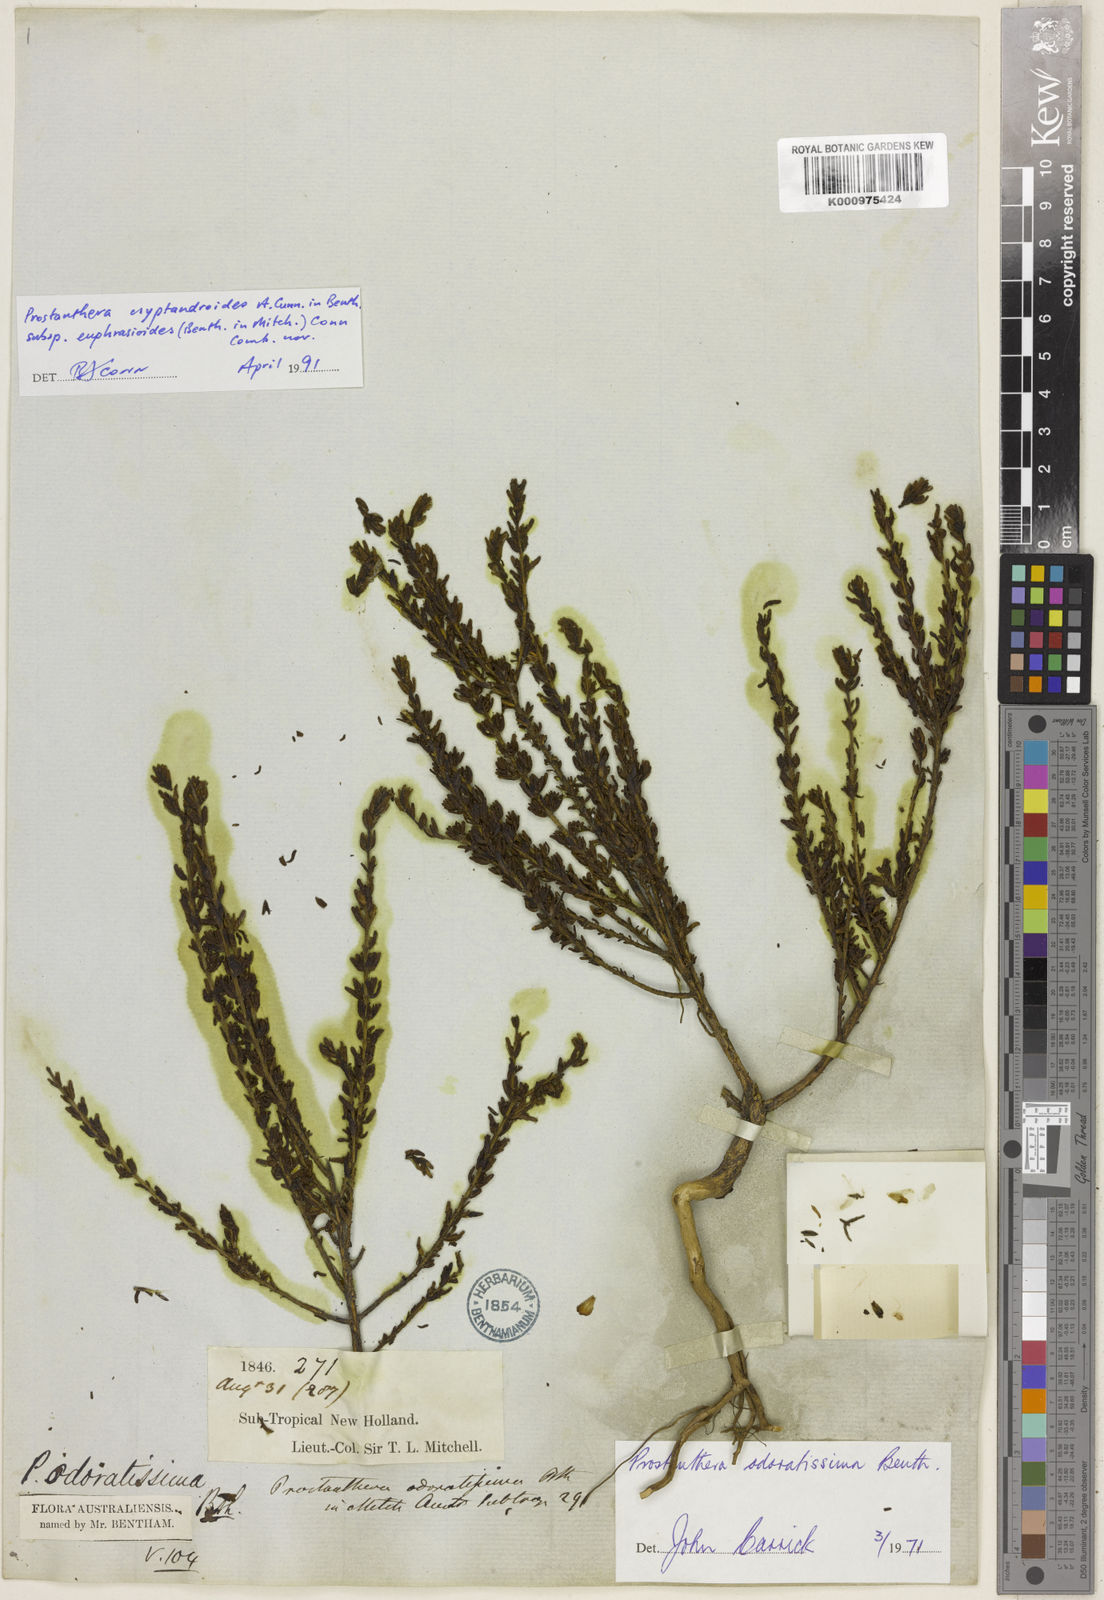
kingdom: Plantae
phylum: Tracheophyta
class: Magnoliopsida
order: Lamiales
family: Lamiaceae
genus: Prostanthera
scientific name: Prostanthera cryptandroides
